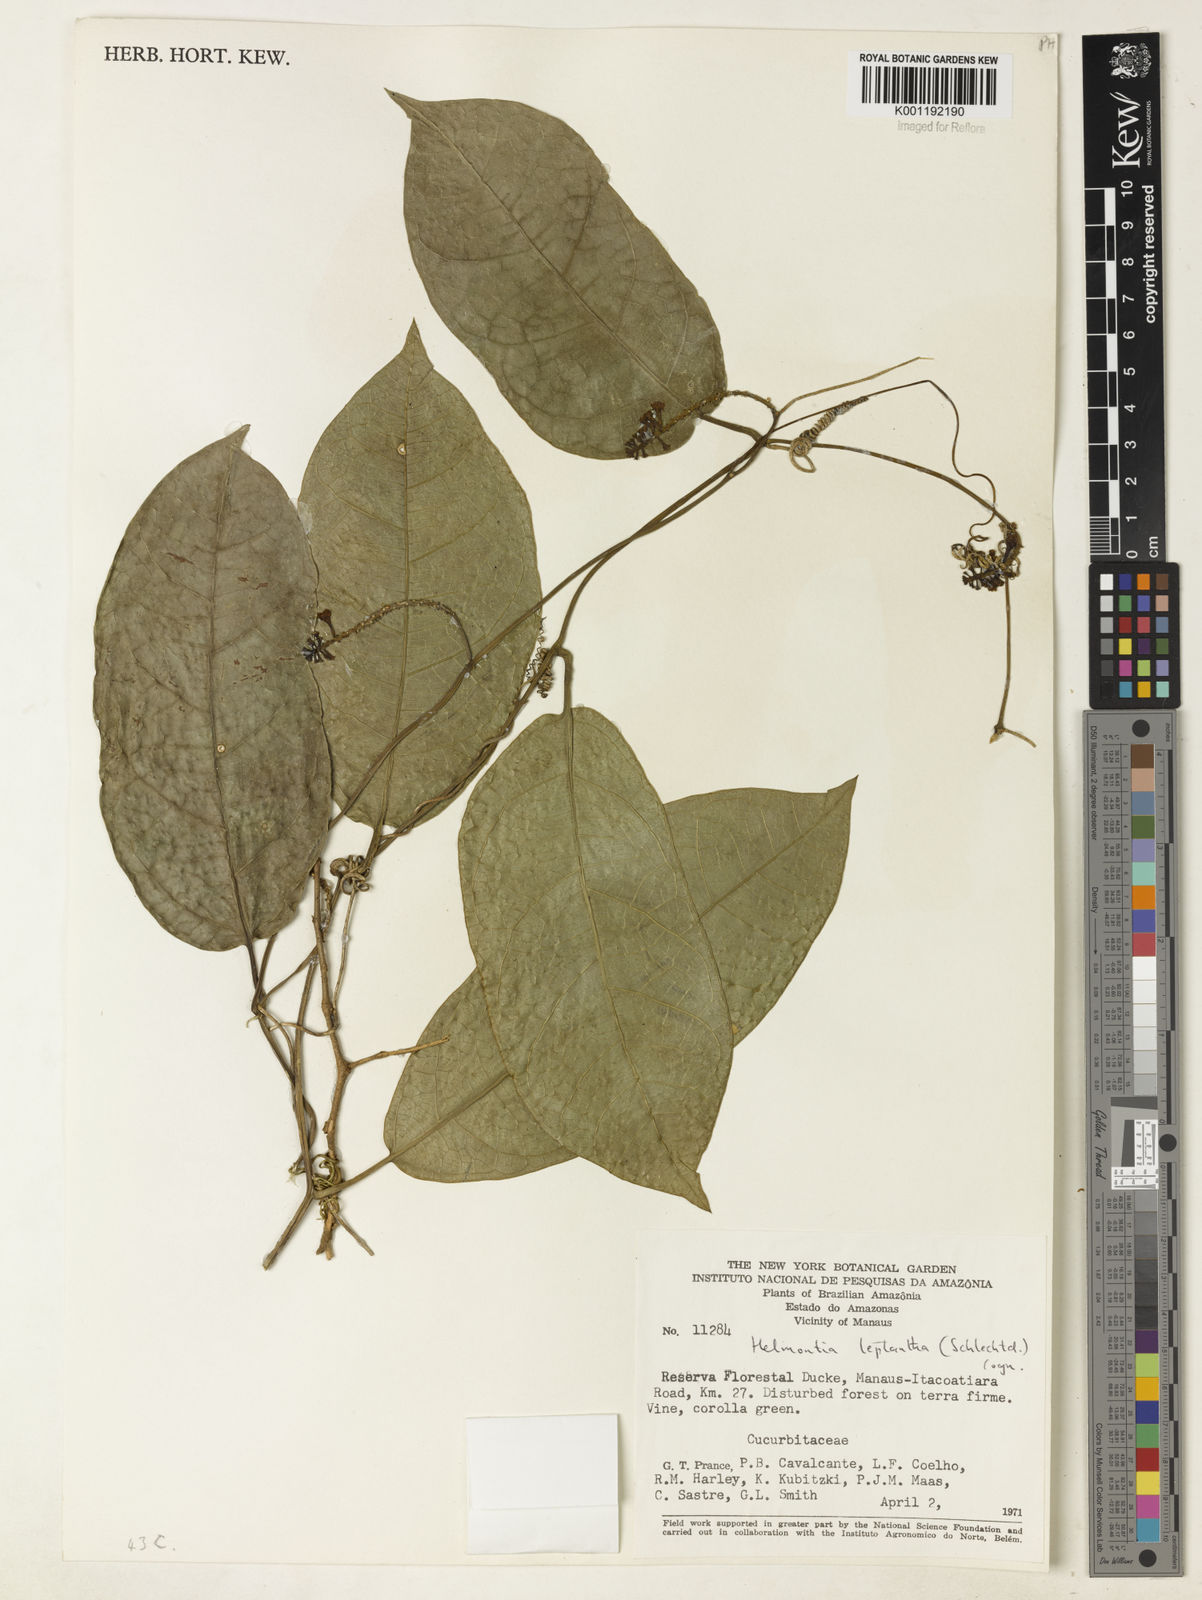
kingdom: Plantae
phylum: Tracheophyta
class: Magnoliopsida
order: Cucurbitales
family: Cucurbitaceae
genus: Helmontia
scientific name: Helmontia leptantha
